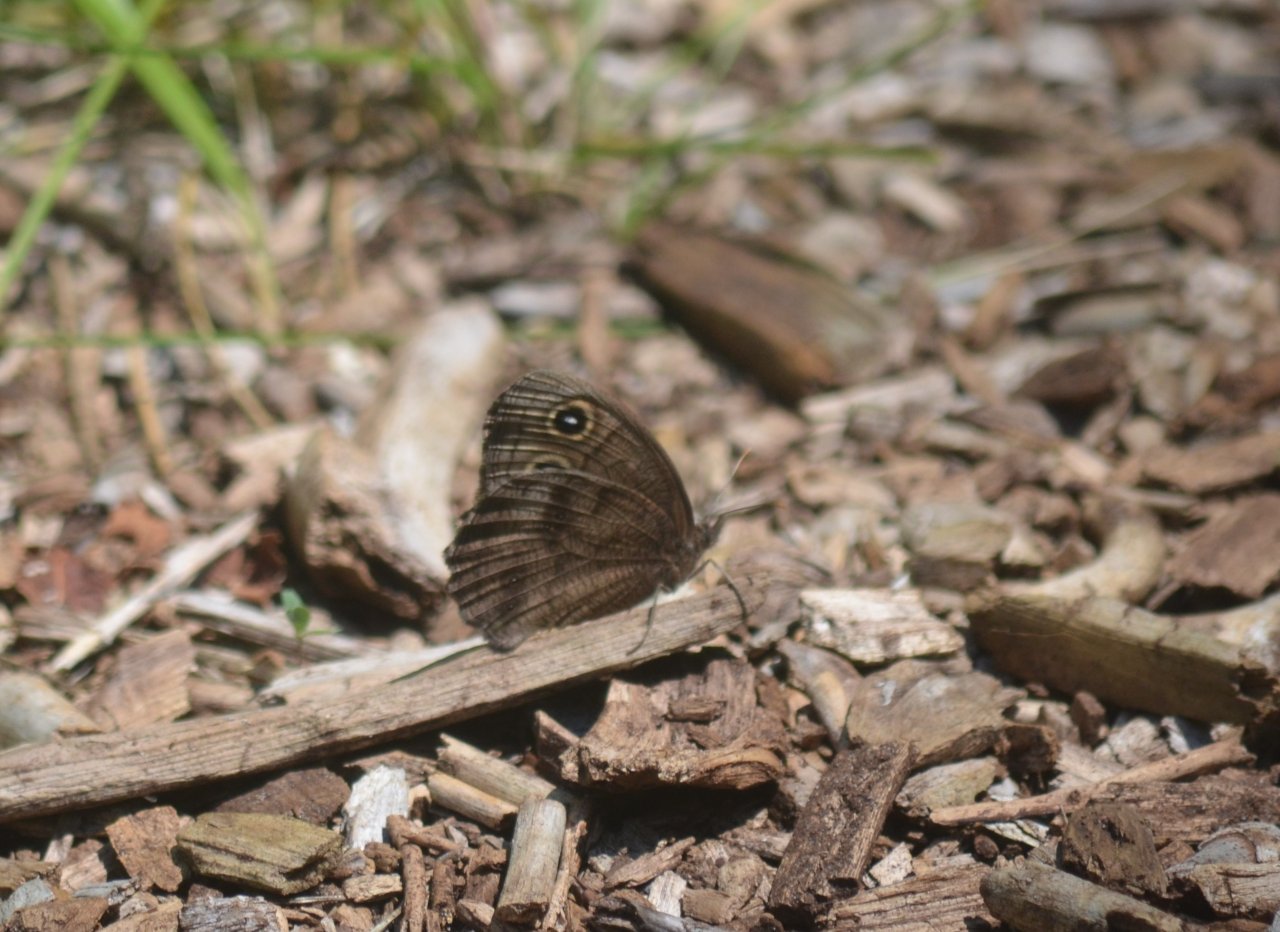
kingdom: Animalia
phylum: Arthropoda
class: Insecta
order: Lepidoptera
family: Nymphalidae
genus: Cercyonis
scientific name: Cercyonis pegala
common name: Common Wood-Nymph
